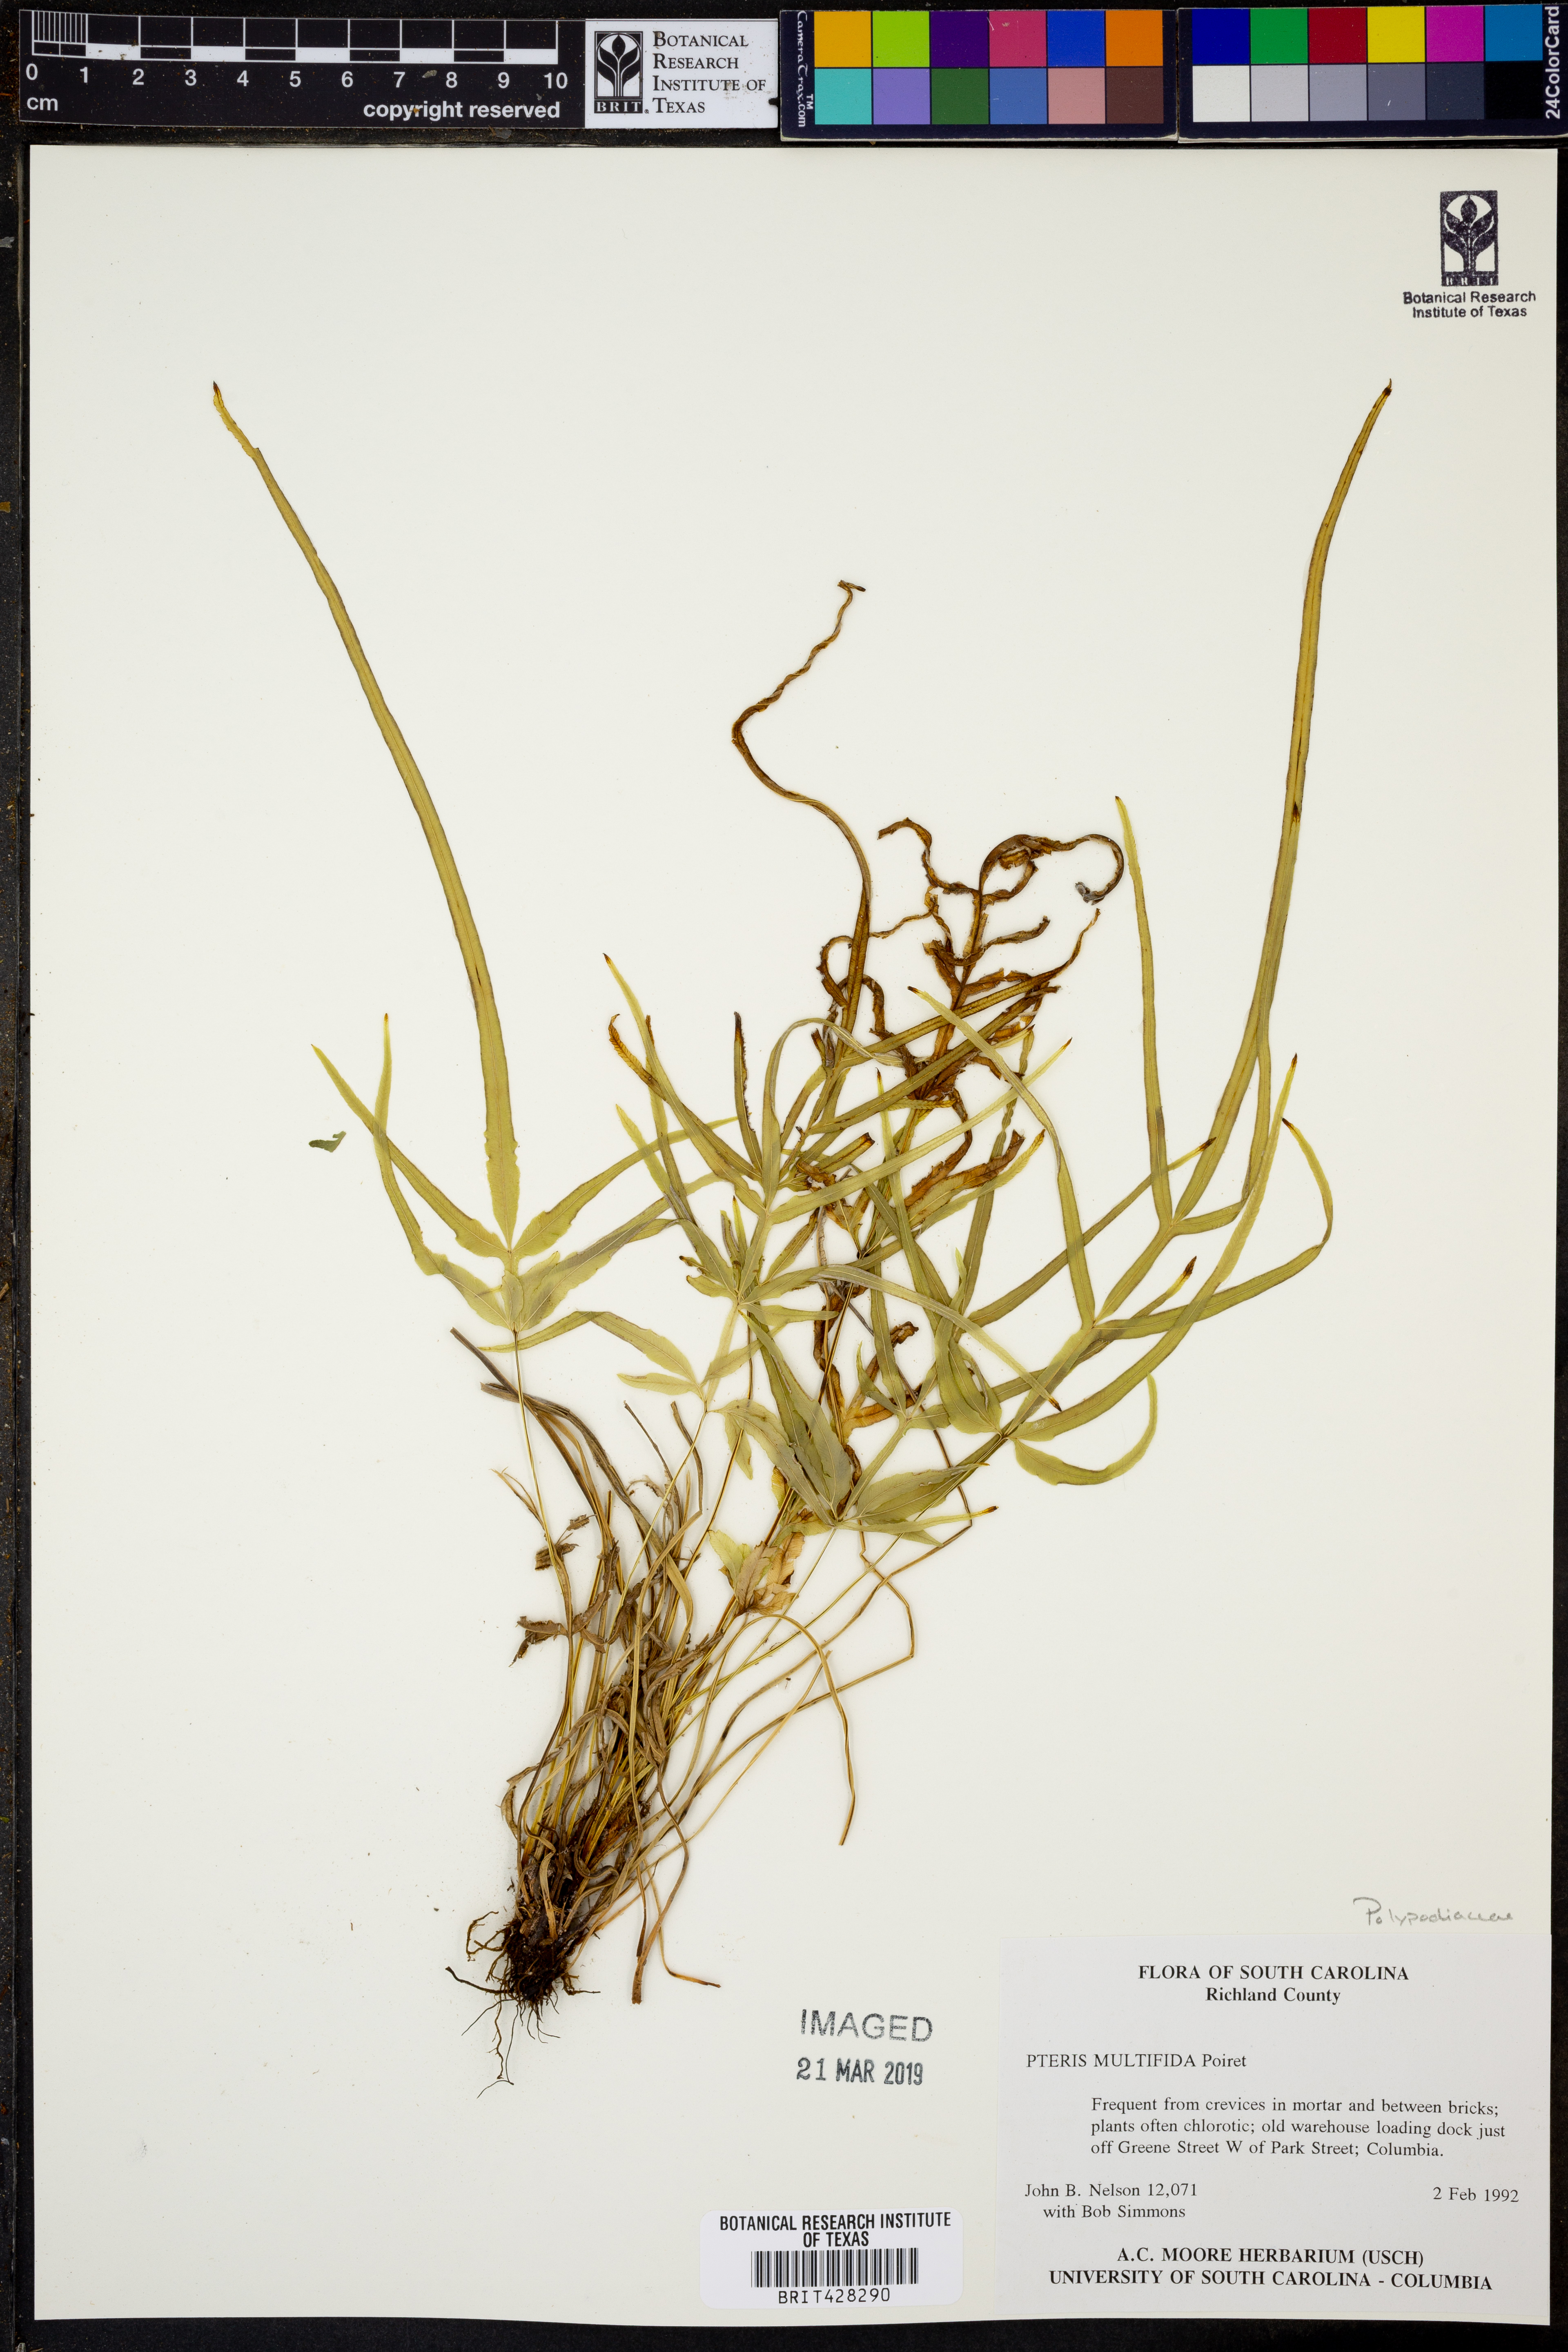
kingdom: Plantae
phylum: Tracheophyta
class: Polypodiopsida
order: Polypodiales
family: Pteridaceae
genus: Pteris
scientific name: Pteris multifida
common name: Spider brake
